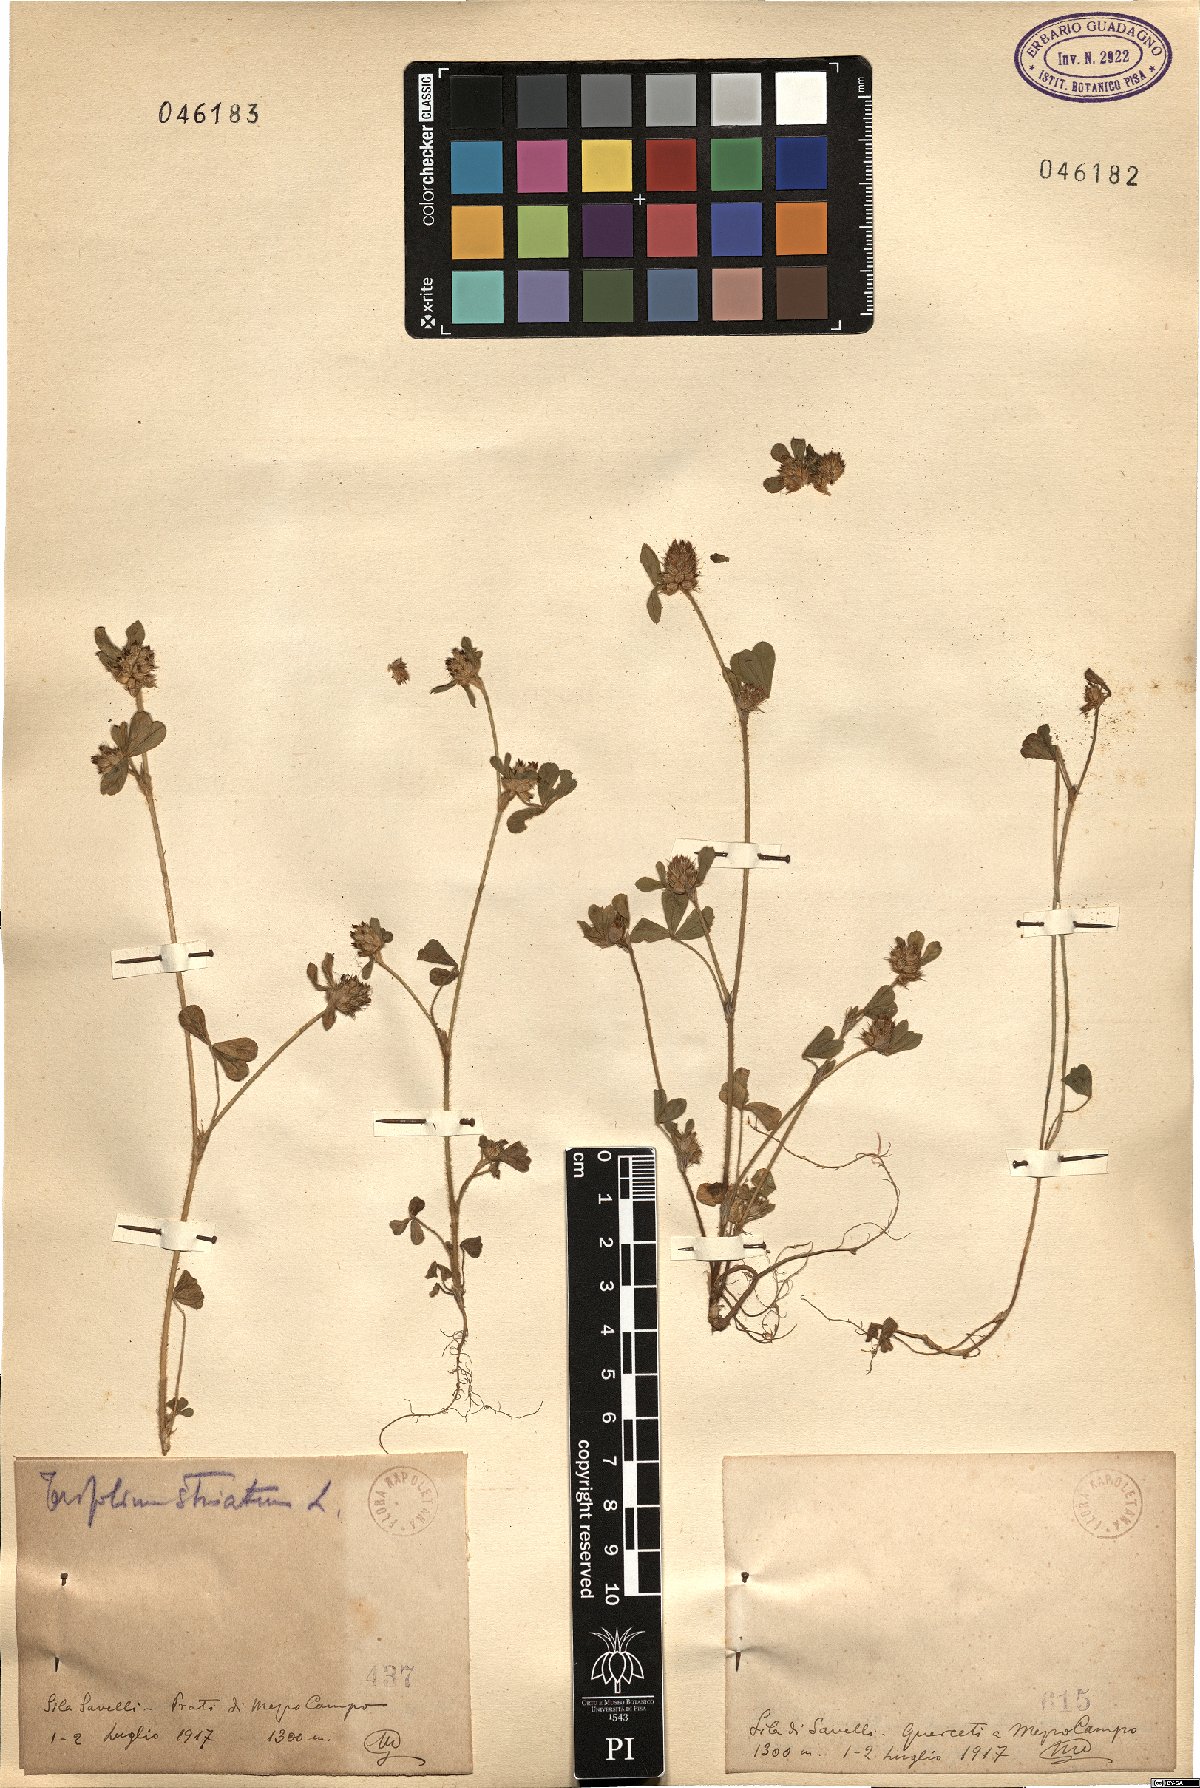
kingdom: Plantae
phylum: Tracheophyta
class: Magnoliopsida
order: Fabales
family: Fabaceae
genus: Trifolium
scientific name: Trifolium
